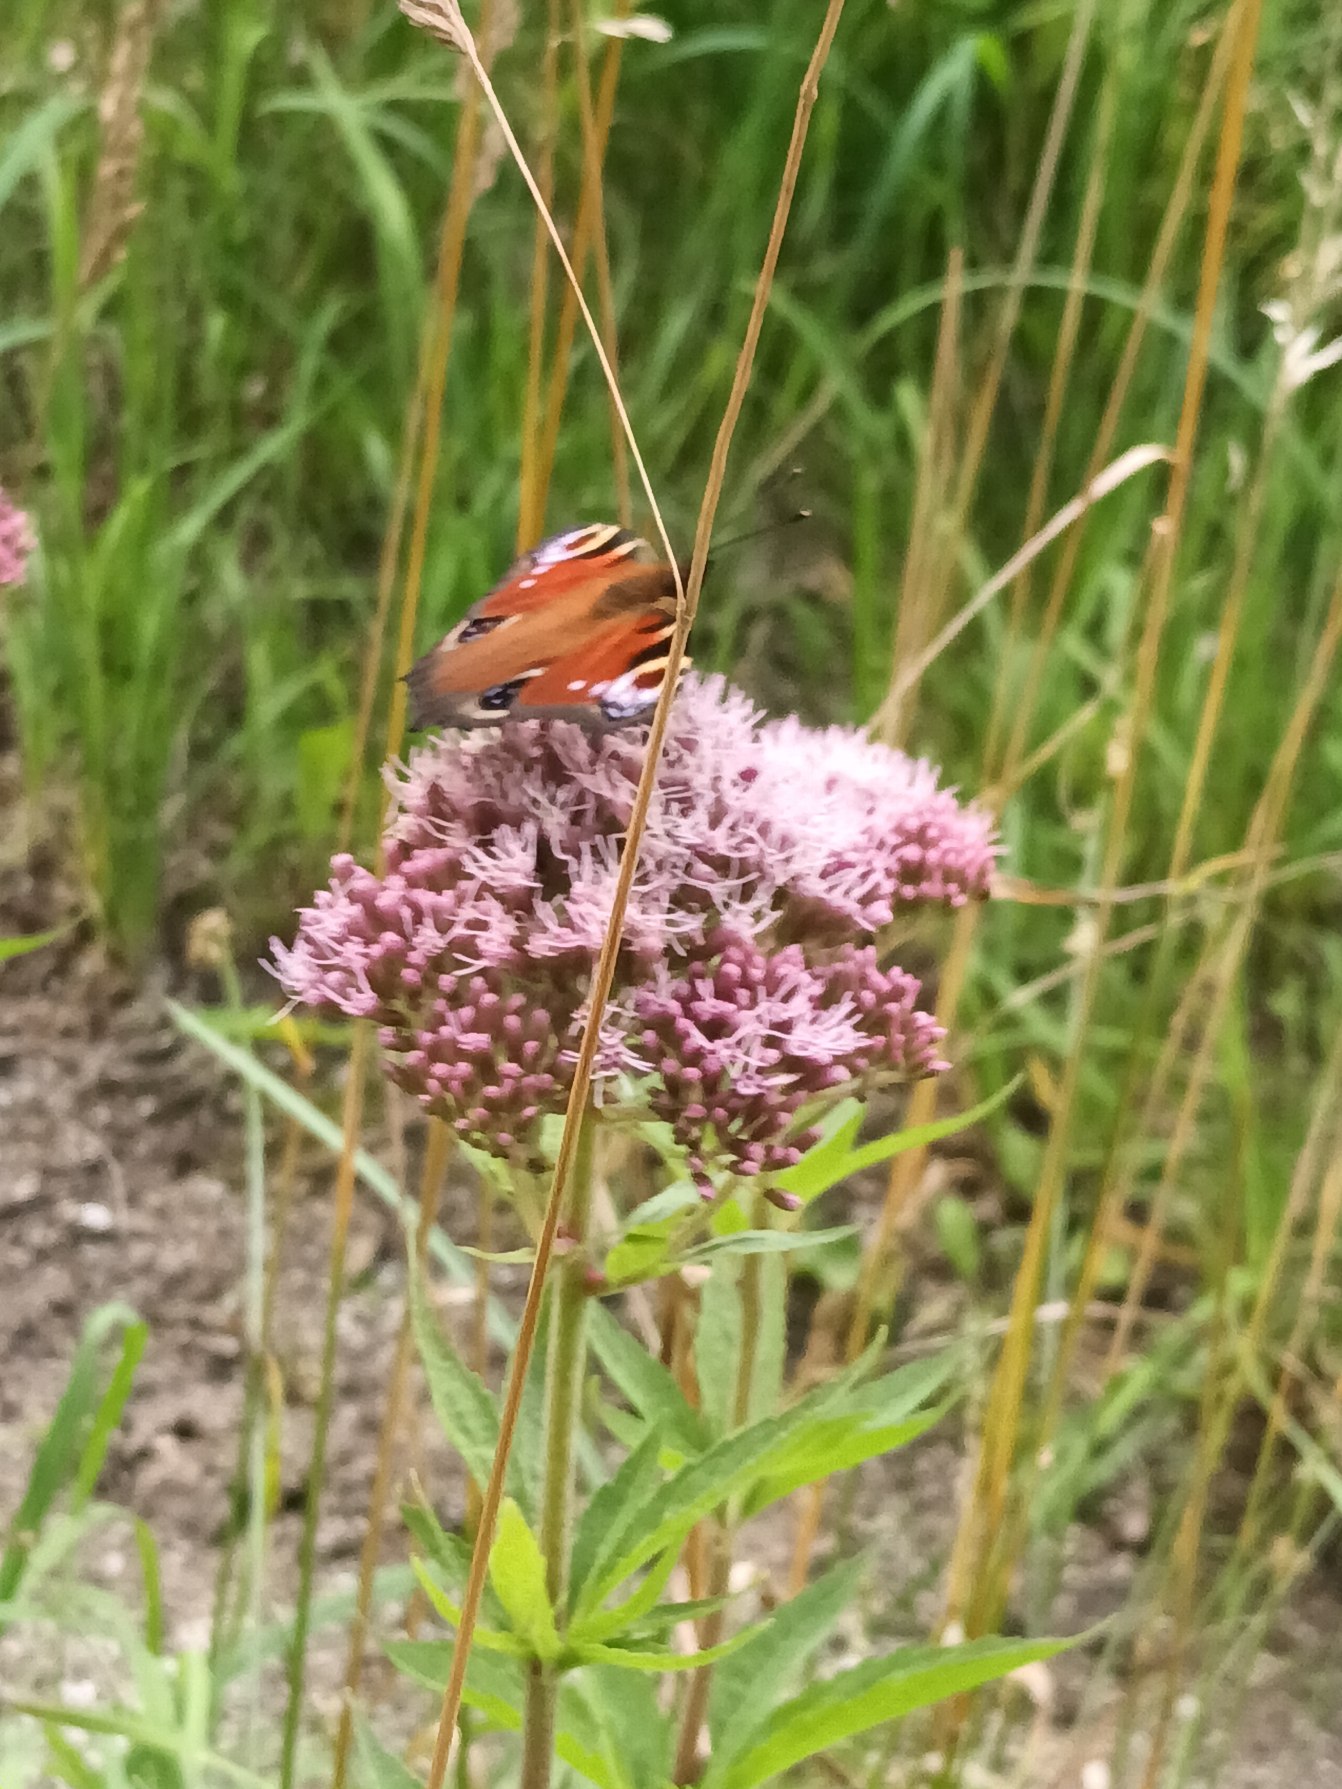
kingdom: Plantae
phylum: Tracheophyta
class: Magnoliopsida
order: Asterales
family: Asteraceae
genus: Eupatorium
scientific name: Eupatorium cannabinum
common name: Hjortetrøst
